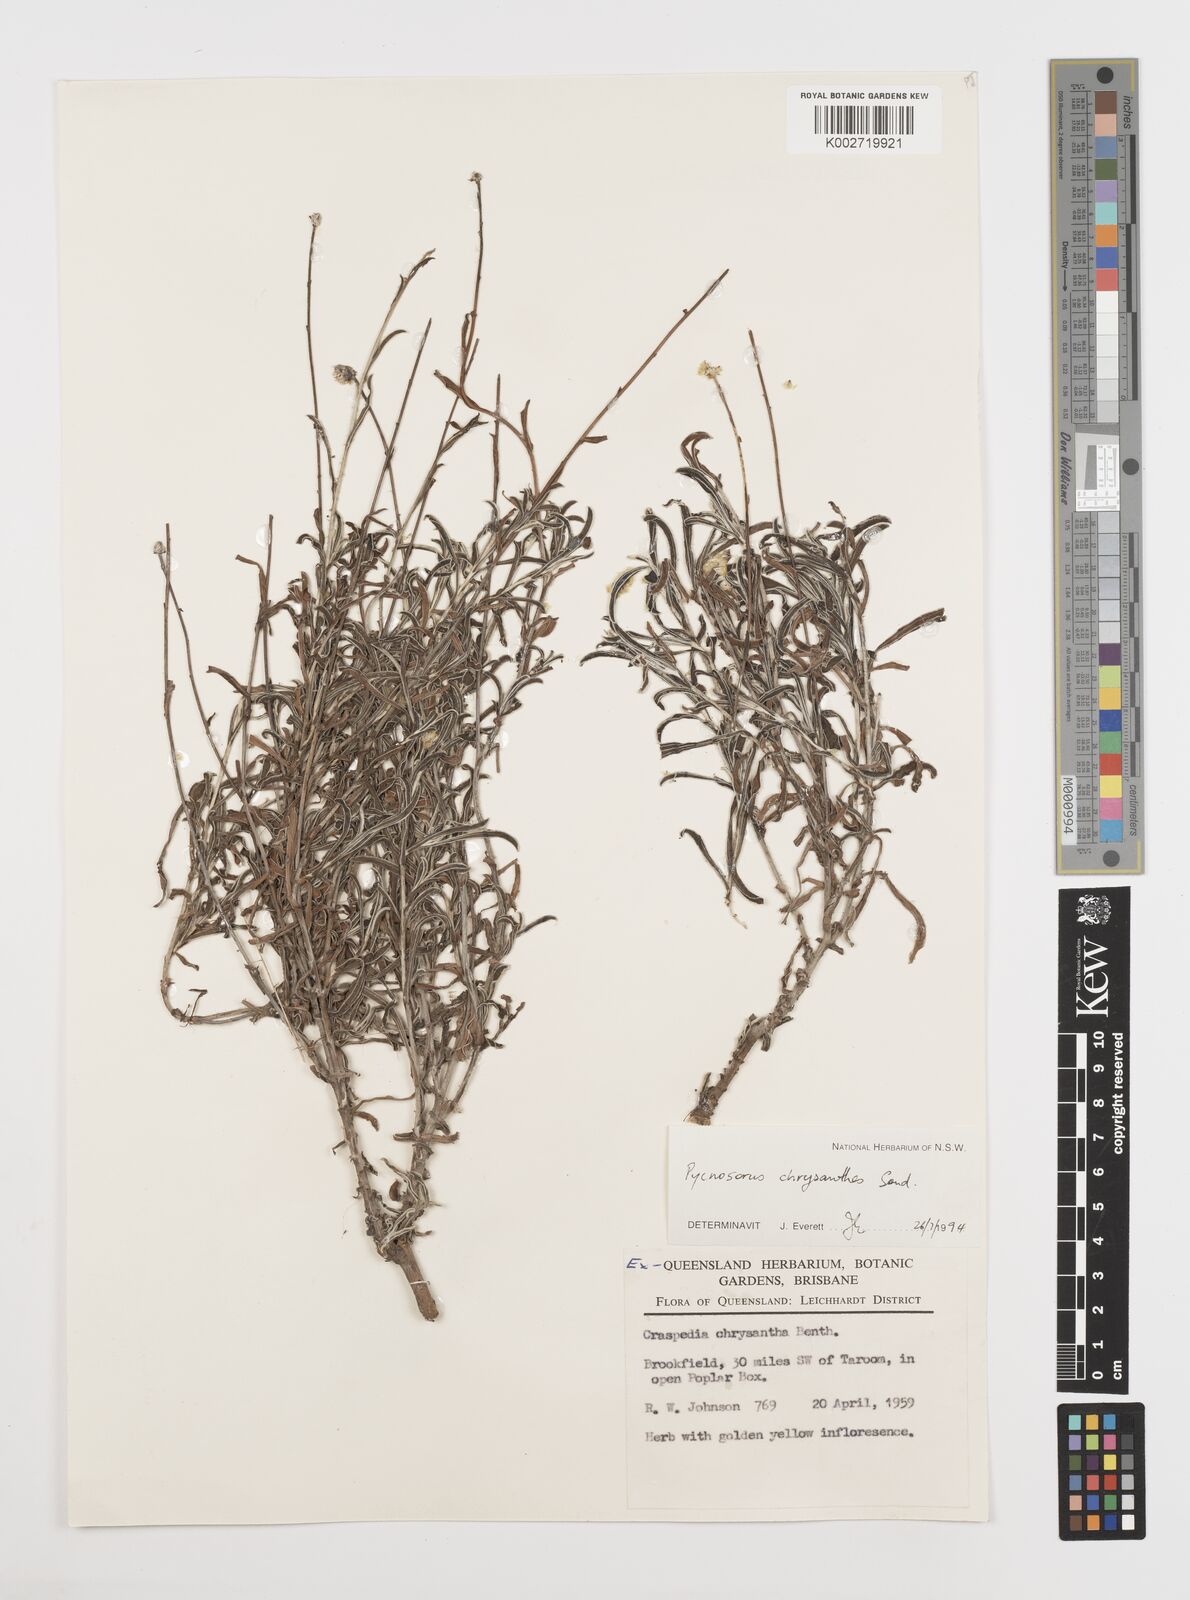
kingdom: Plantae
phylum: Tracheophyta
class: Magnoliopsida
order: Asterales
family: Asteraceae
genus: Pycnosorus
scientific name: Pycnosorus chrysanthus
